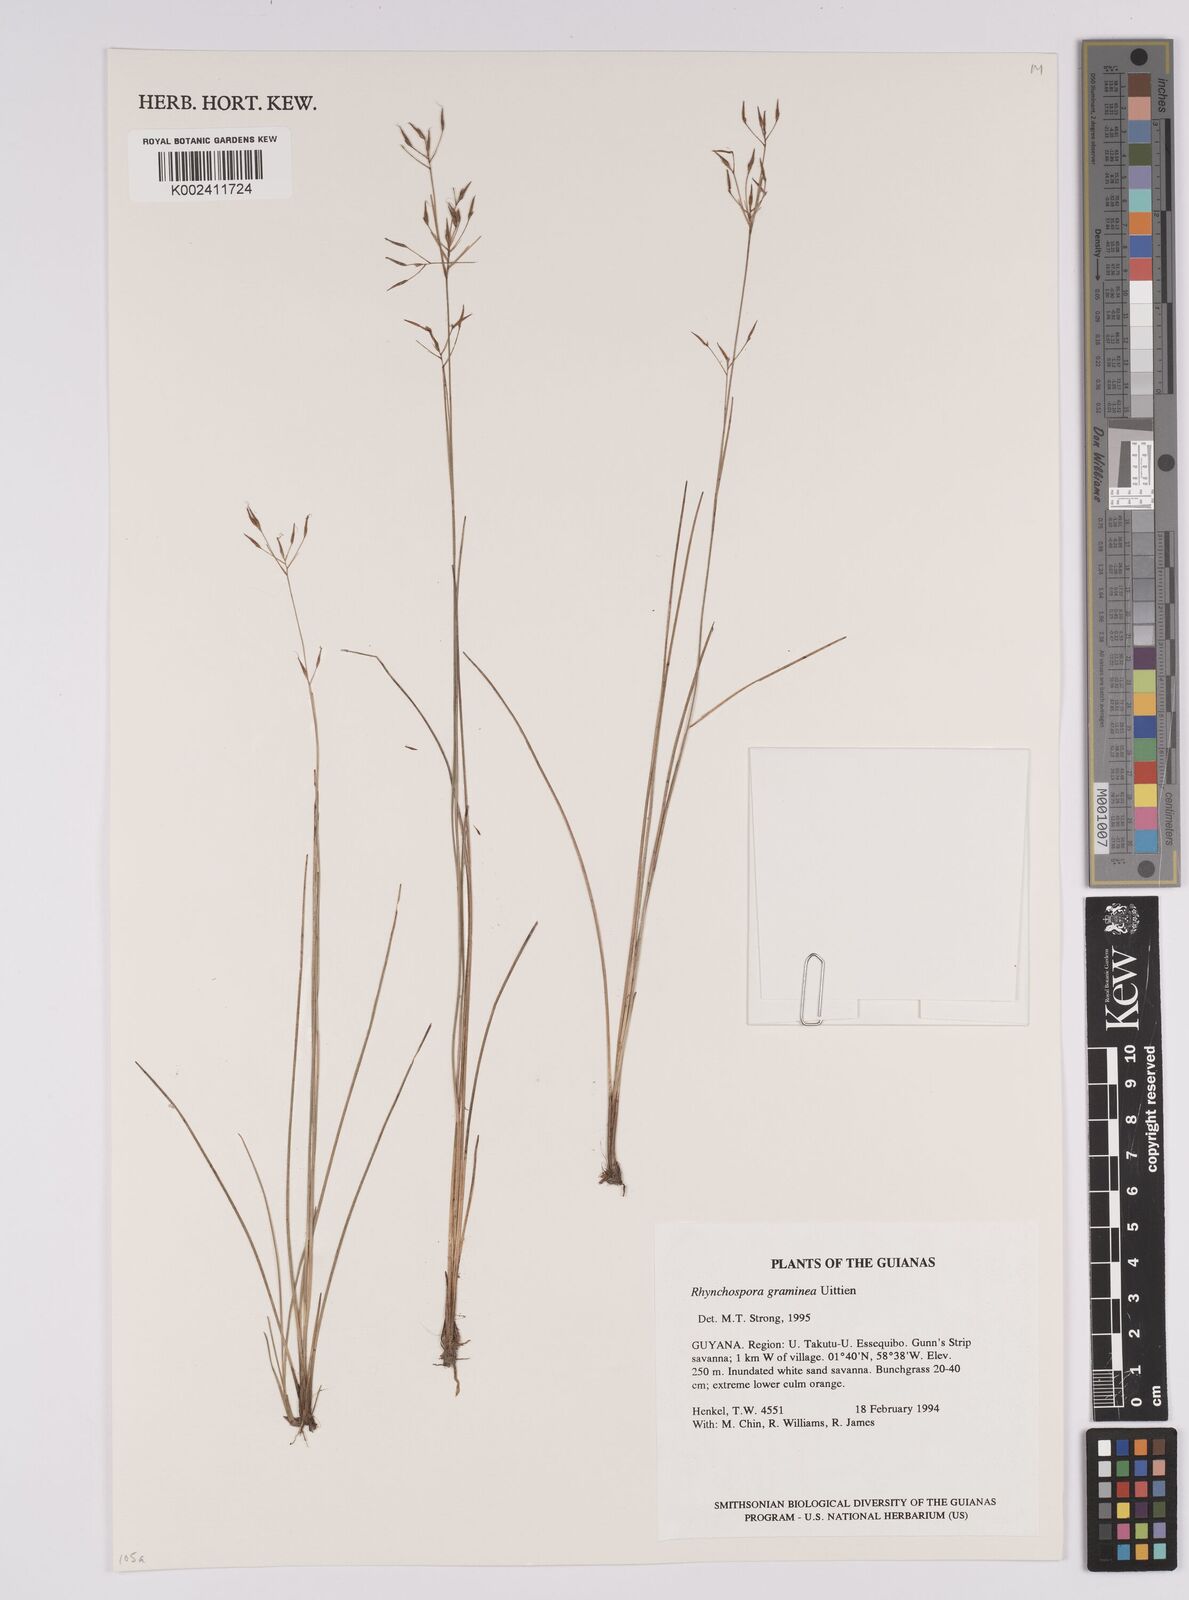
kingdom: Plantae
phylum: Tracheophyta
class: Liliopsida
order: Poales
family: Cyperaceae
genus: Rhynchospora
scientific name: Rhynchospora spruceana
